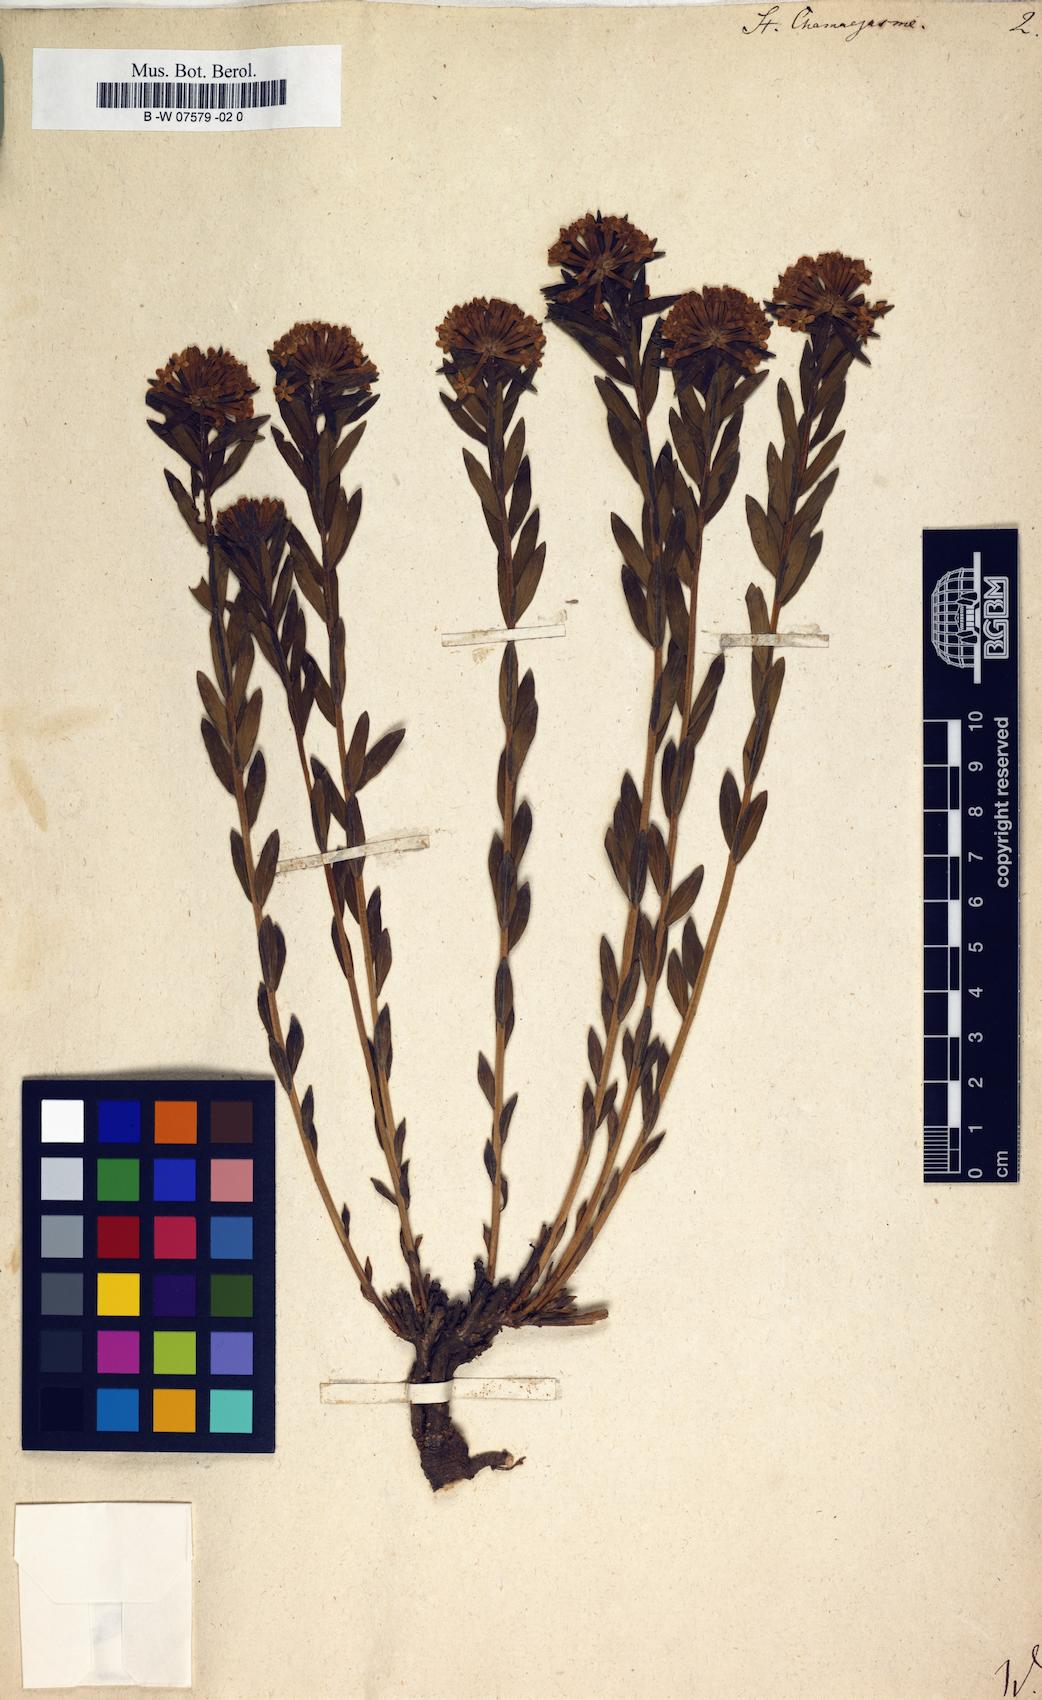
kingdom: Plantae
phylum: Tracheophyta
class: Magnoliopsida
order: Malvales
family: Thymelaeaceae
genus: Stellera
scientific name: Stellera chamaejasme
